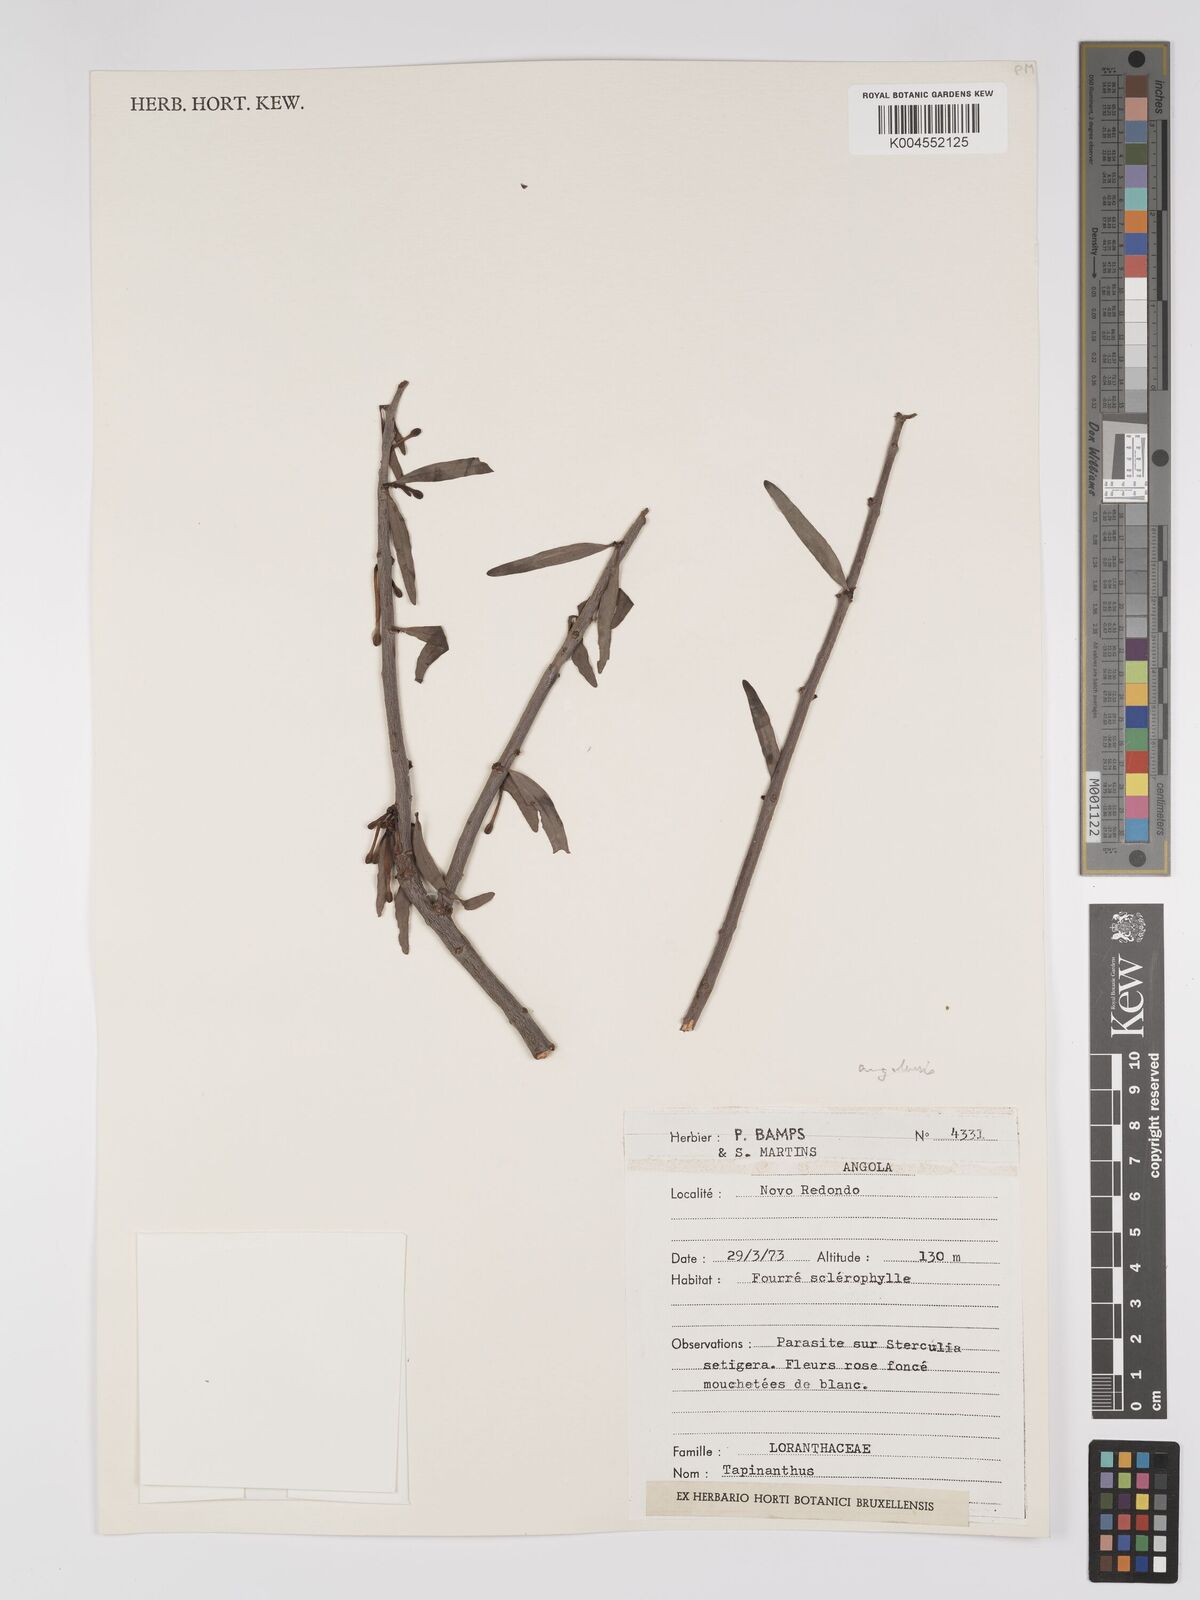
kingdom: Plantae
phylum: Tracheophyta
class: Magnoliopsida
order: Santalales
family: Loranthaceae
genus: Tapinanthus
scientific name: Tapinanthus forbesii
